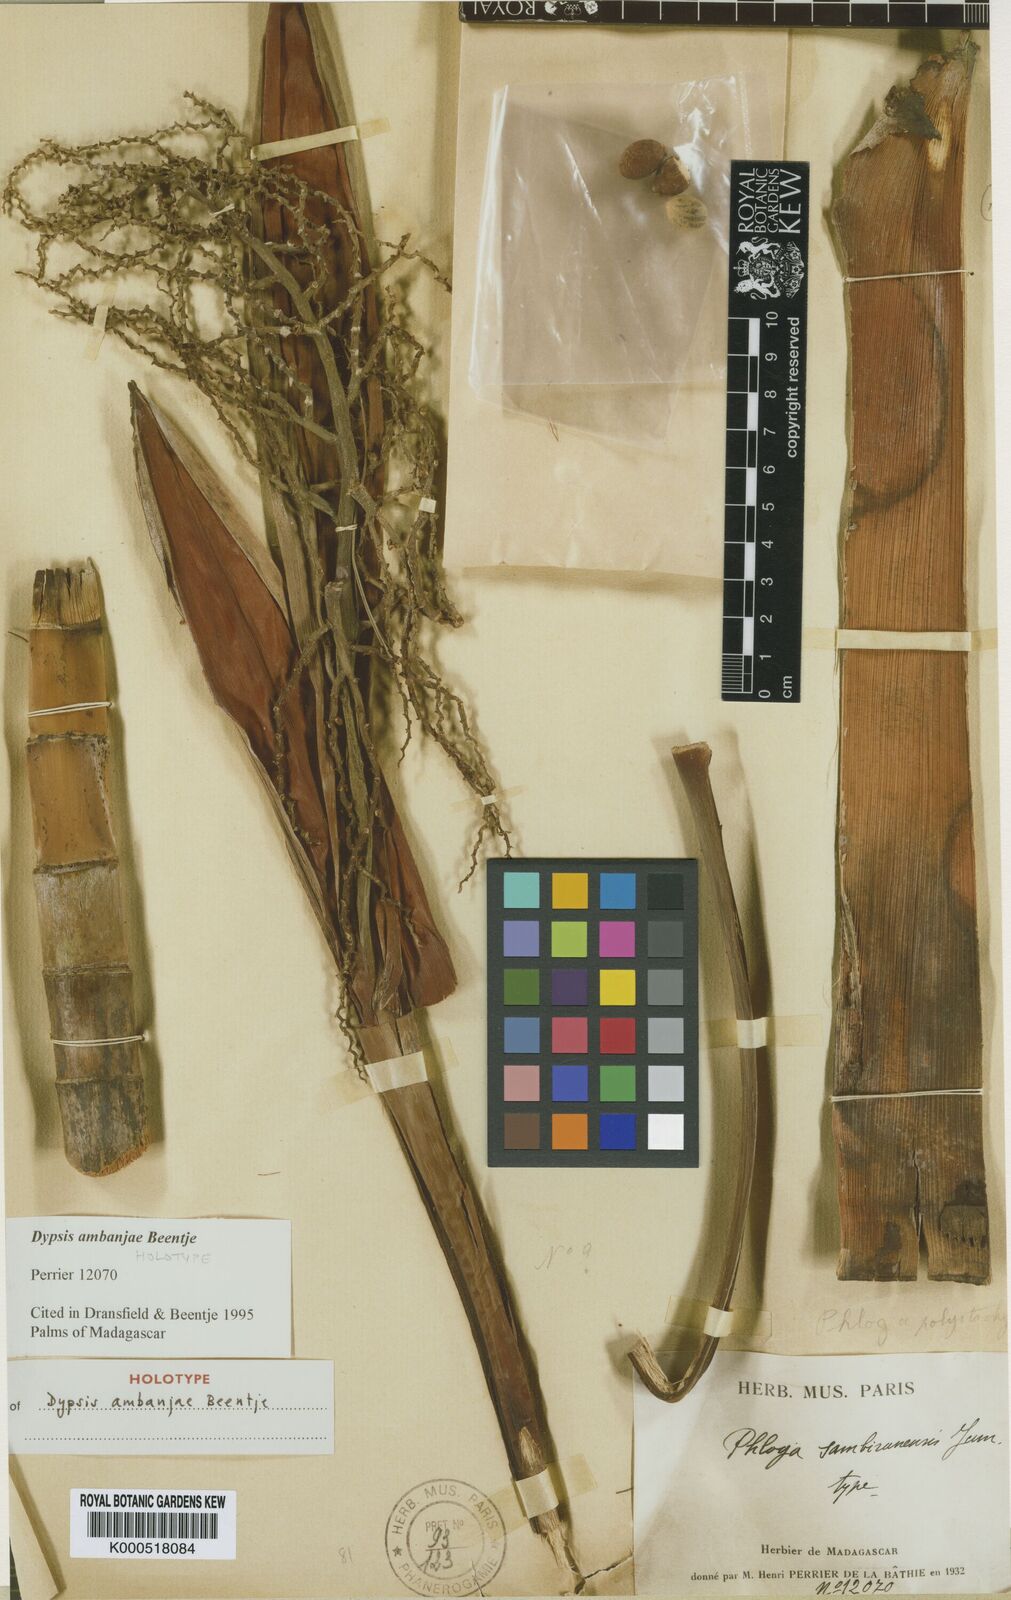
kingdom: Plantae
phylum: Tracheophyta
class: Liliopsida
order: Arecales
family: Arecaceae
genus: Dypsis
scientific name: Dypsis ambanjae
